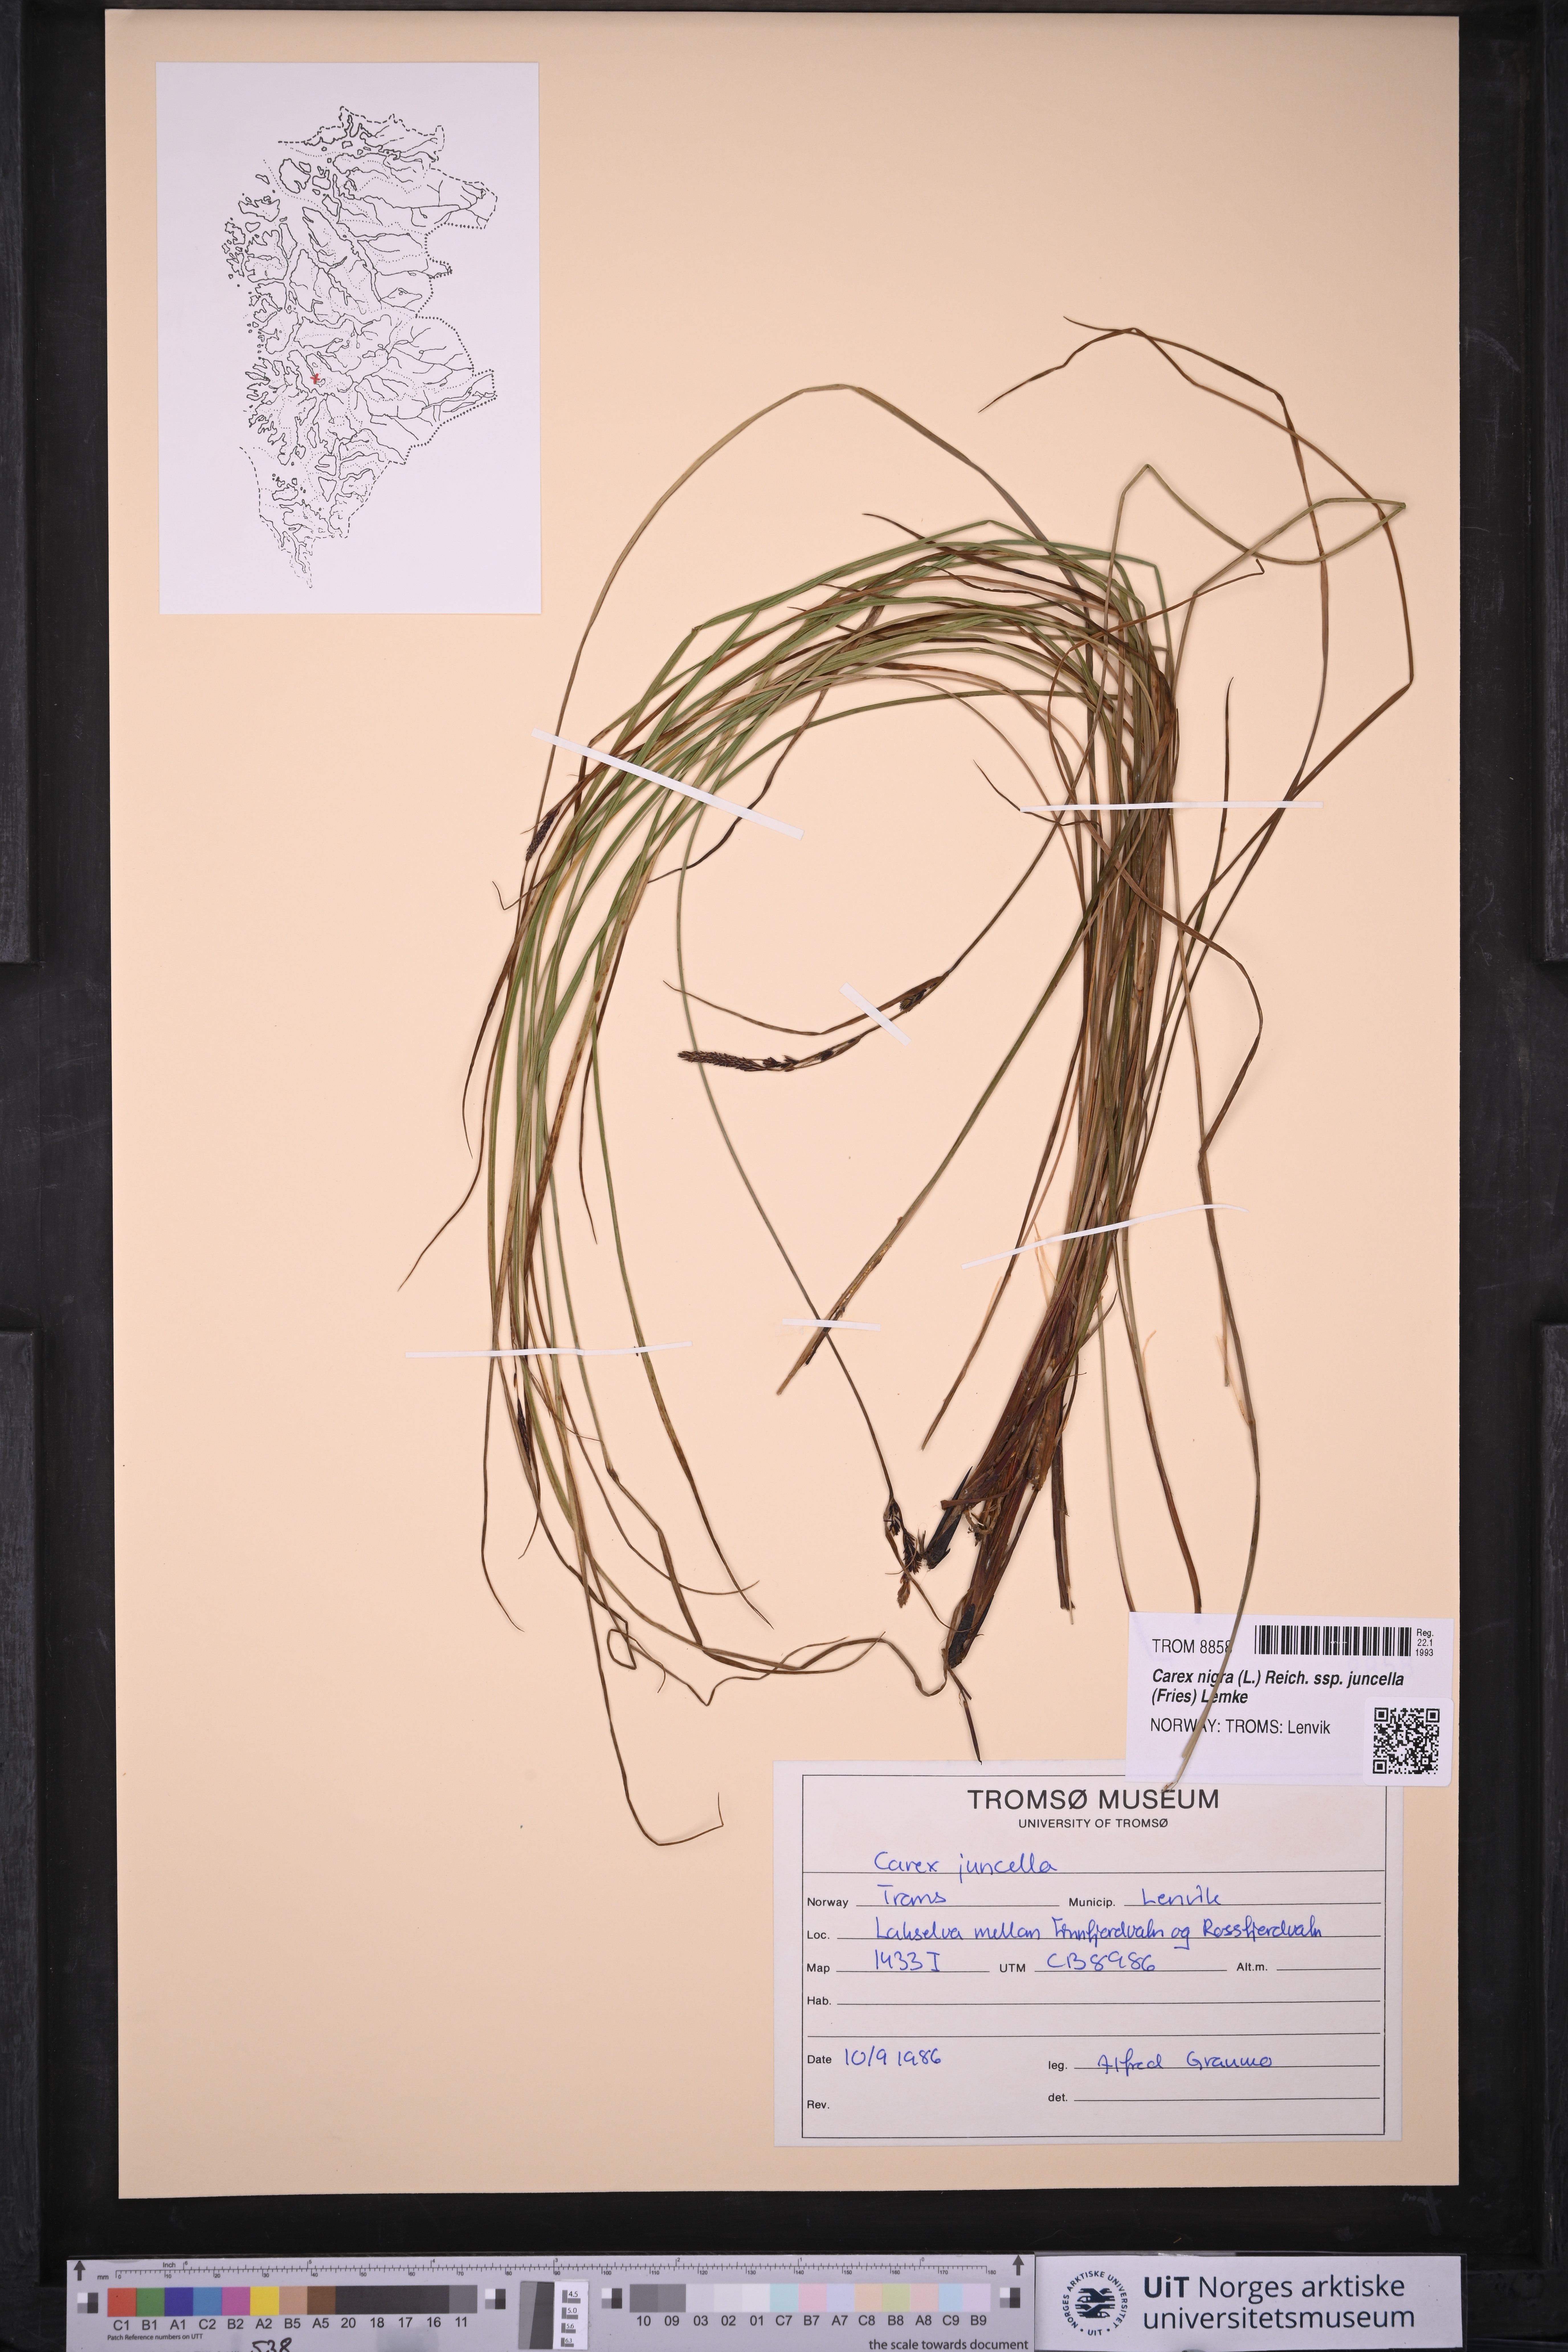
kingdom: Plantae
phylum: Tracheophyta
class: Liliopsida
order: Poales
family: Cyperaceae
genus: Carex
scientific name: Carex nigra
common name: Common sedge
